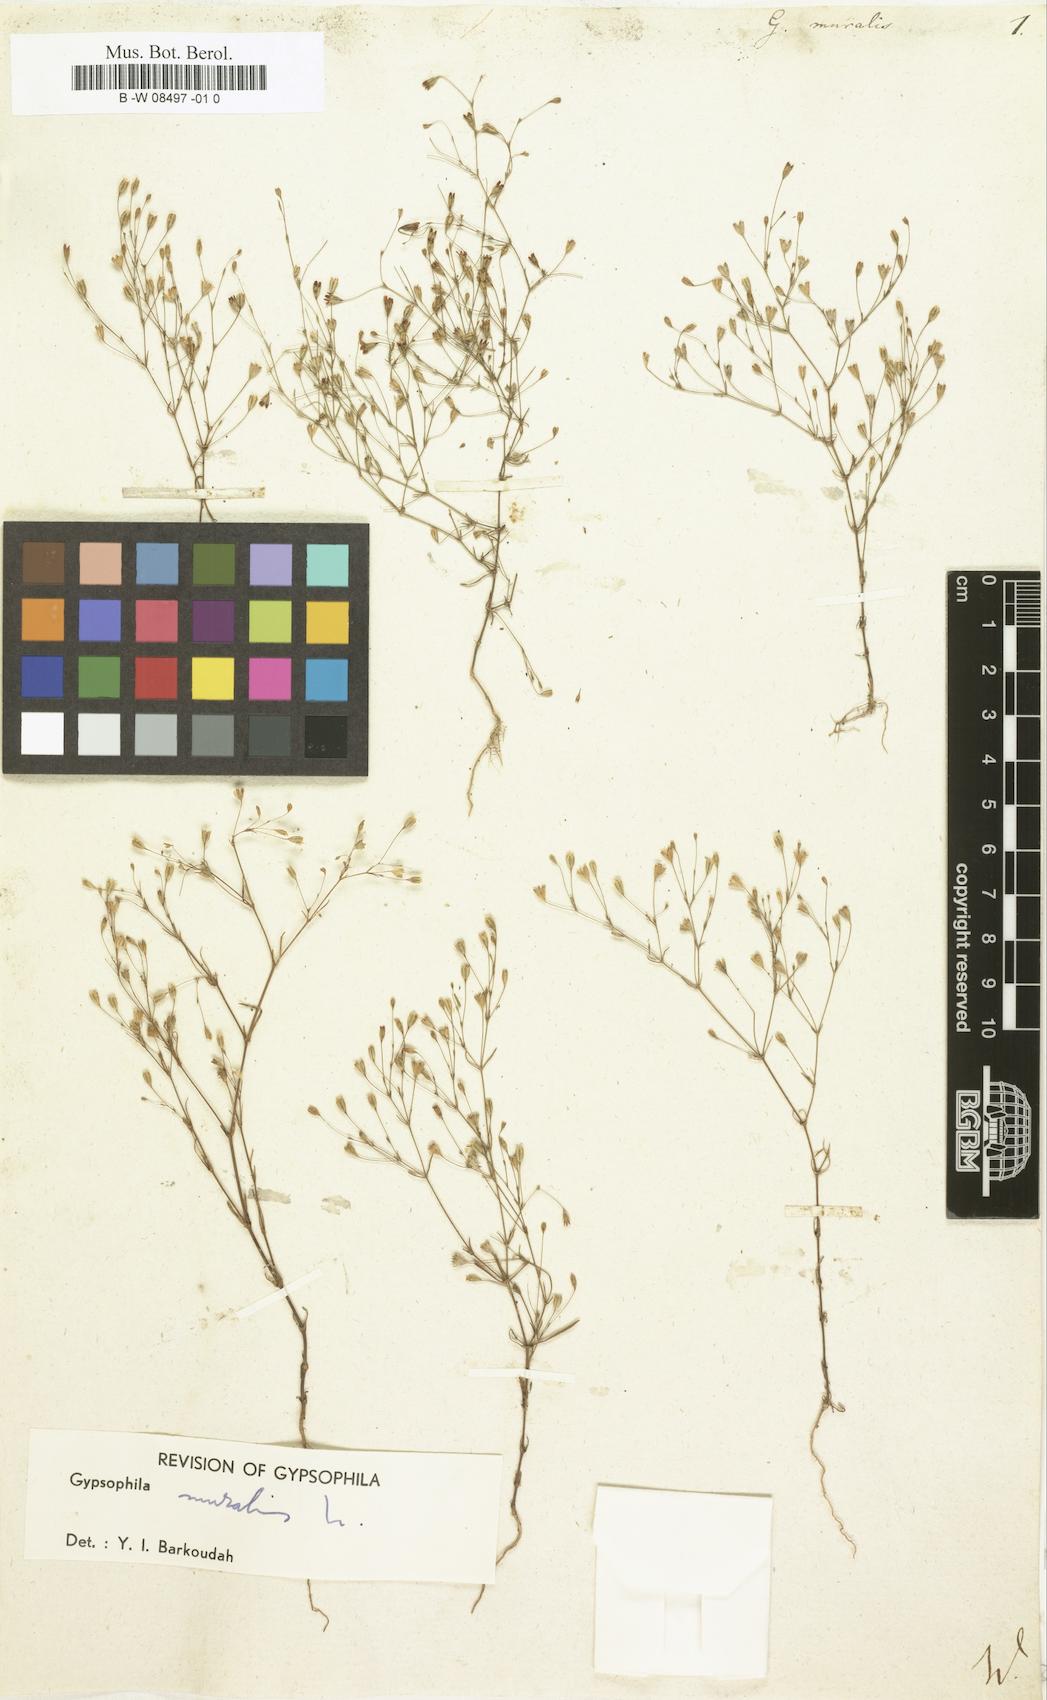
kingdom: Plantae
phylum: Tracheophyta
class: Magnoliopsida
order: Caryophyllales
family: Caryophyllaceae
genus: Psammophiliella
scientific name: Psammophiliella muralis
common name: Cushion baby's-breath
